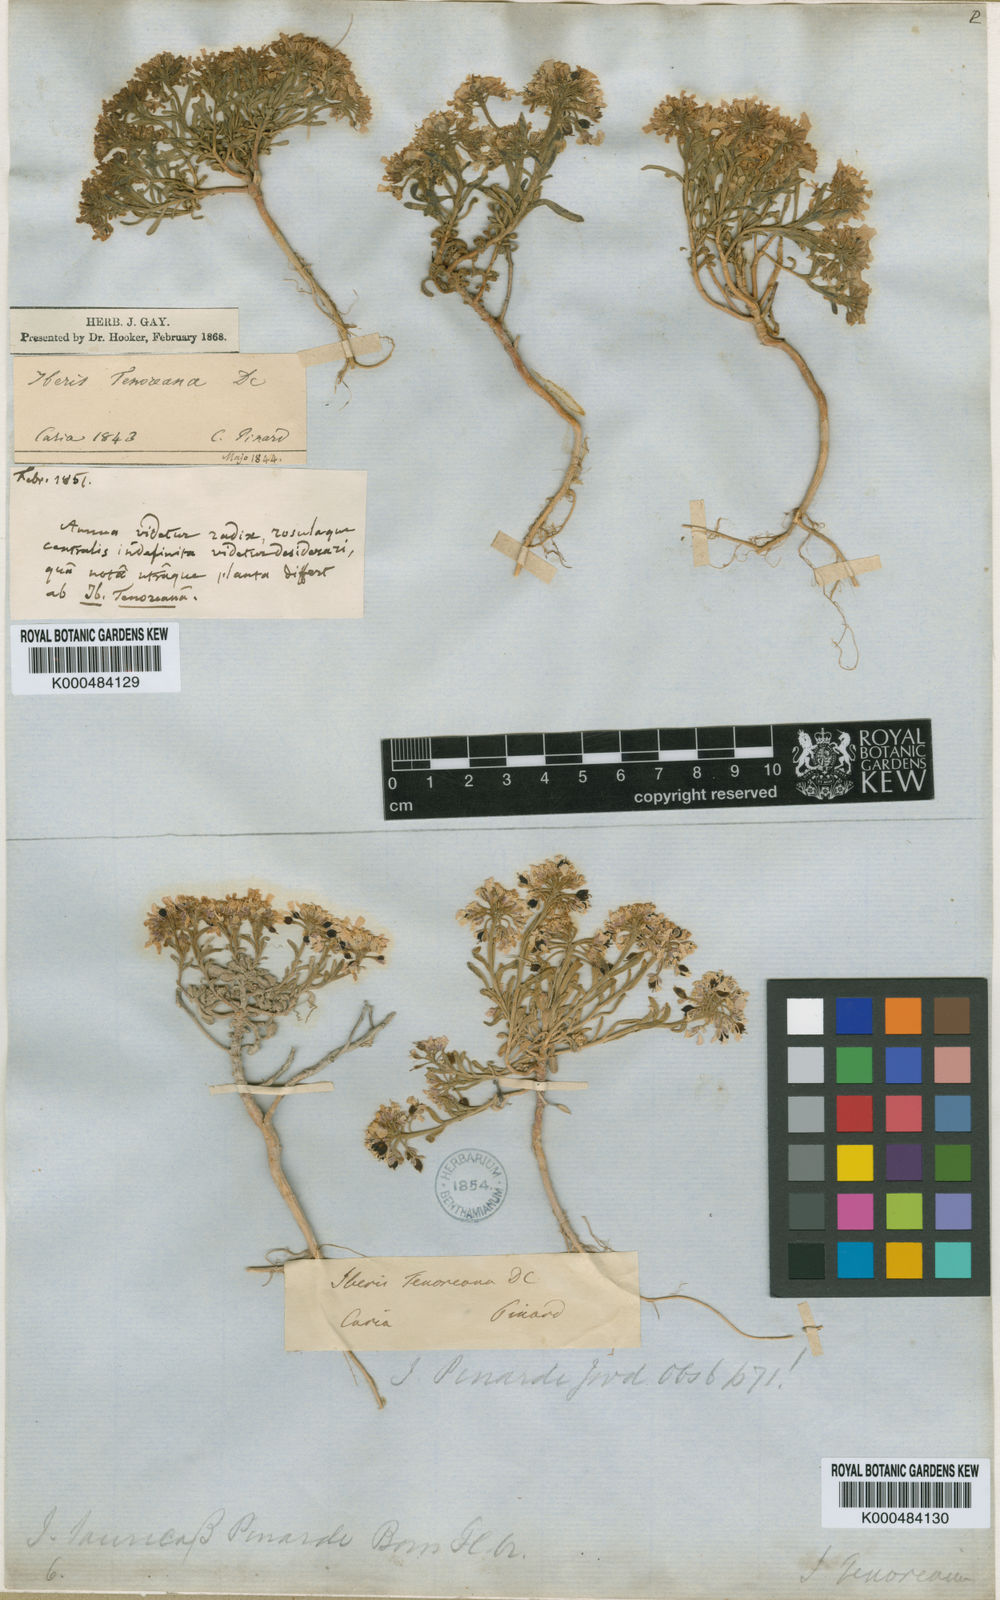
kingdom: Plantae
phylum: Tracheophyta
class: Magnoliopsida
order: Brassicales
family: Brassicaceae
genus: Iberis
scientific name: Iberis simplex
